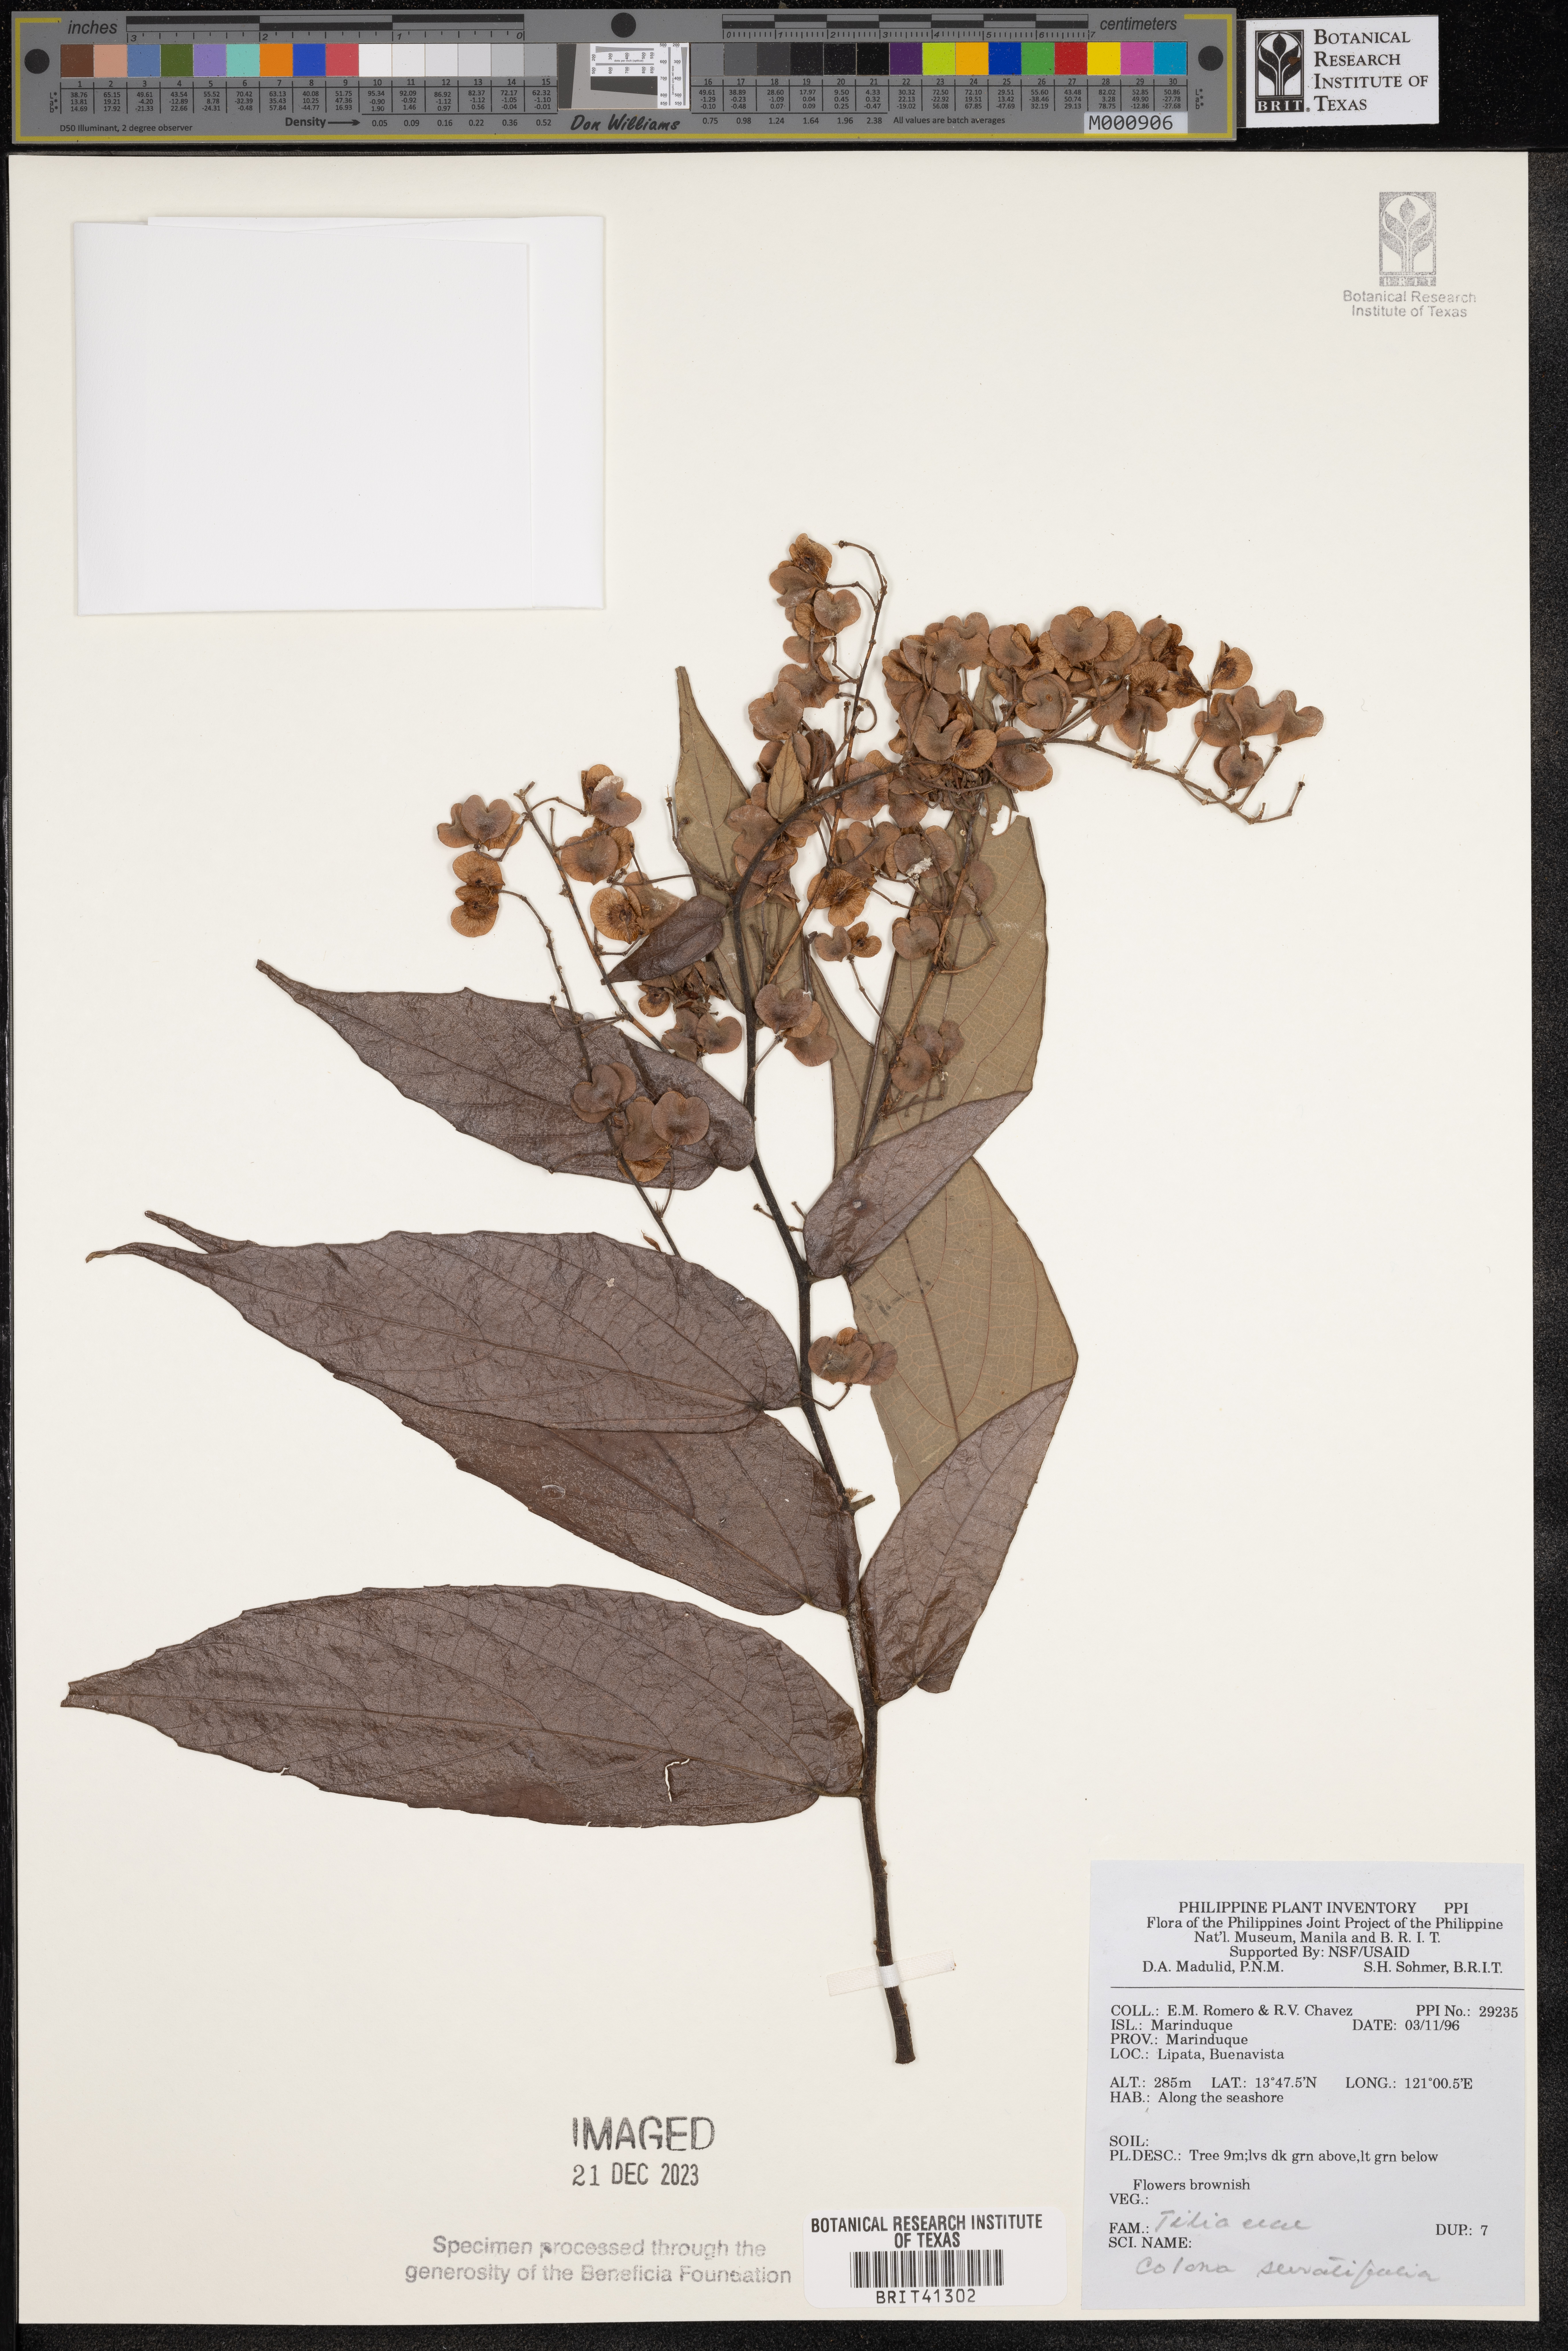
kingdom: Plantae
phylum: Tracheophyta
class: Magnoliopsida
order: Malvales
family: Malvaceae
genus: Colona
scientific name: Colona serratifolia
